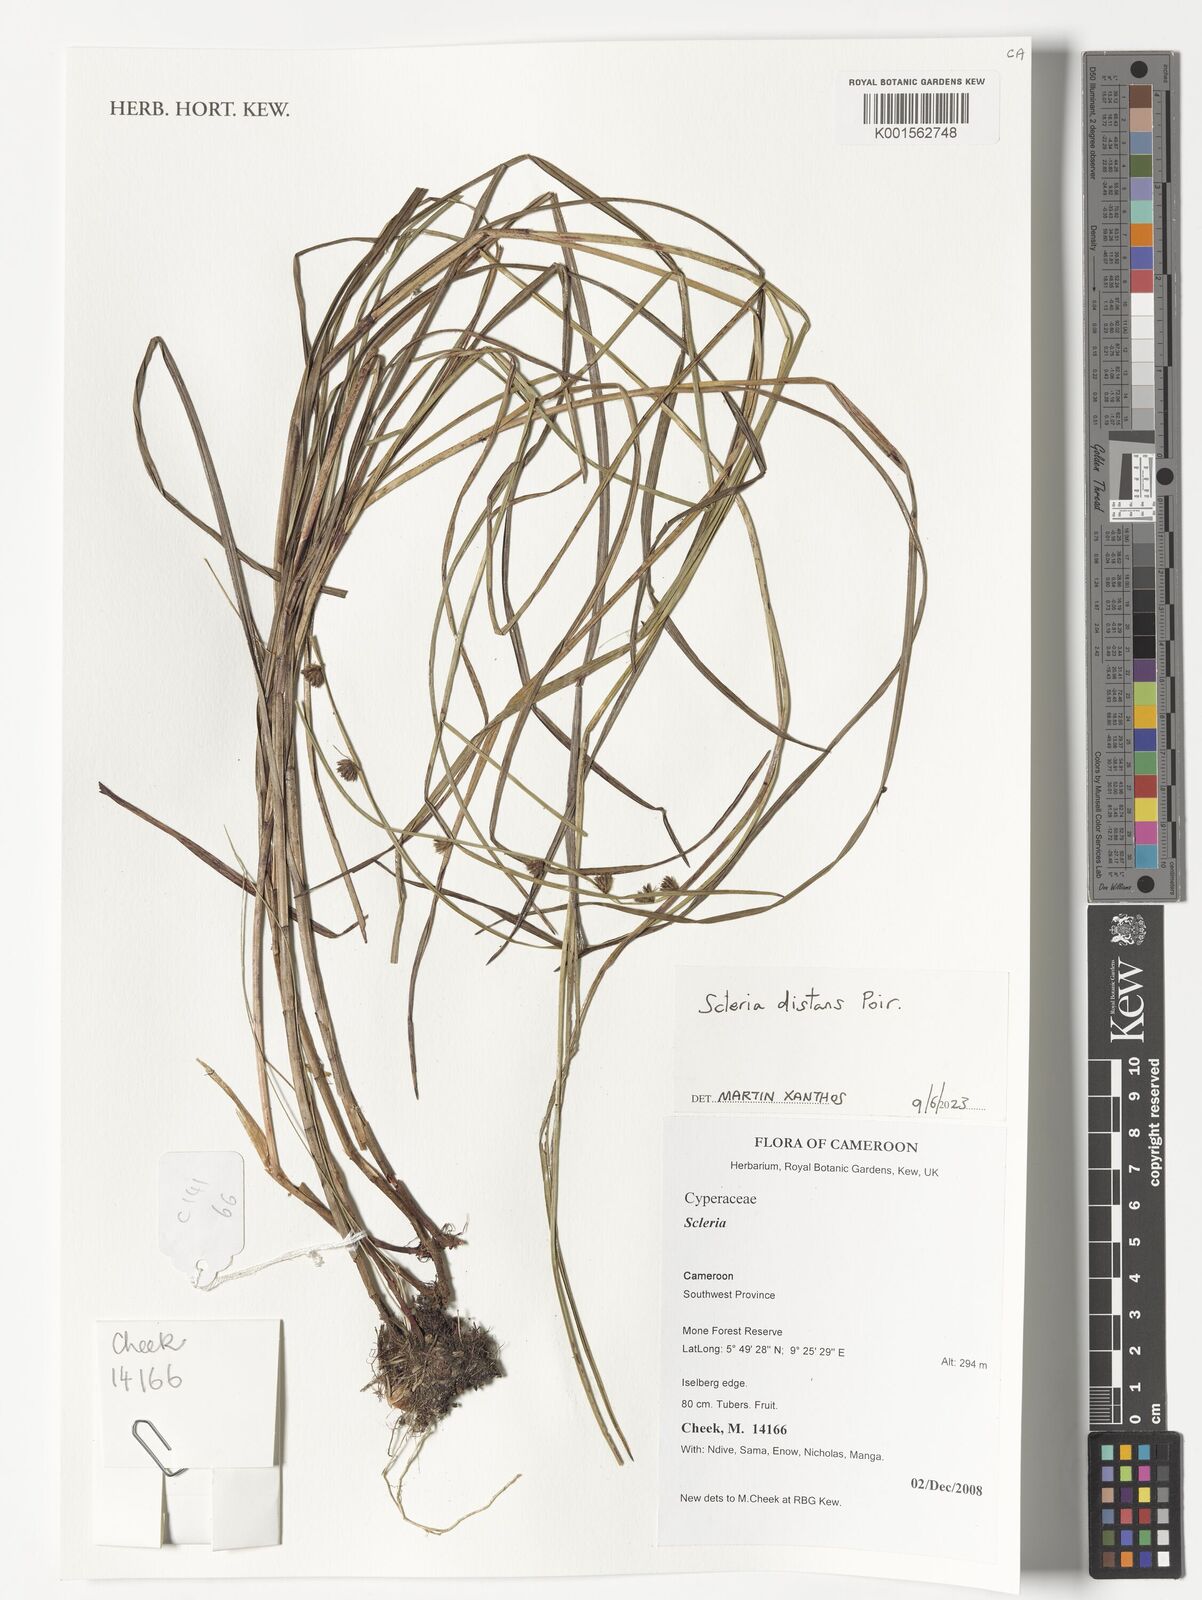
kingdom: Plantae
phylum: Tracheophyta
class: Liliopsida
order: Poales
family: Cyperaceae
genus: Scleria
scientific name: Scleria distans
